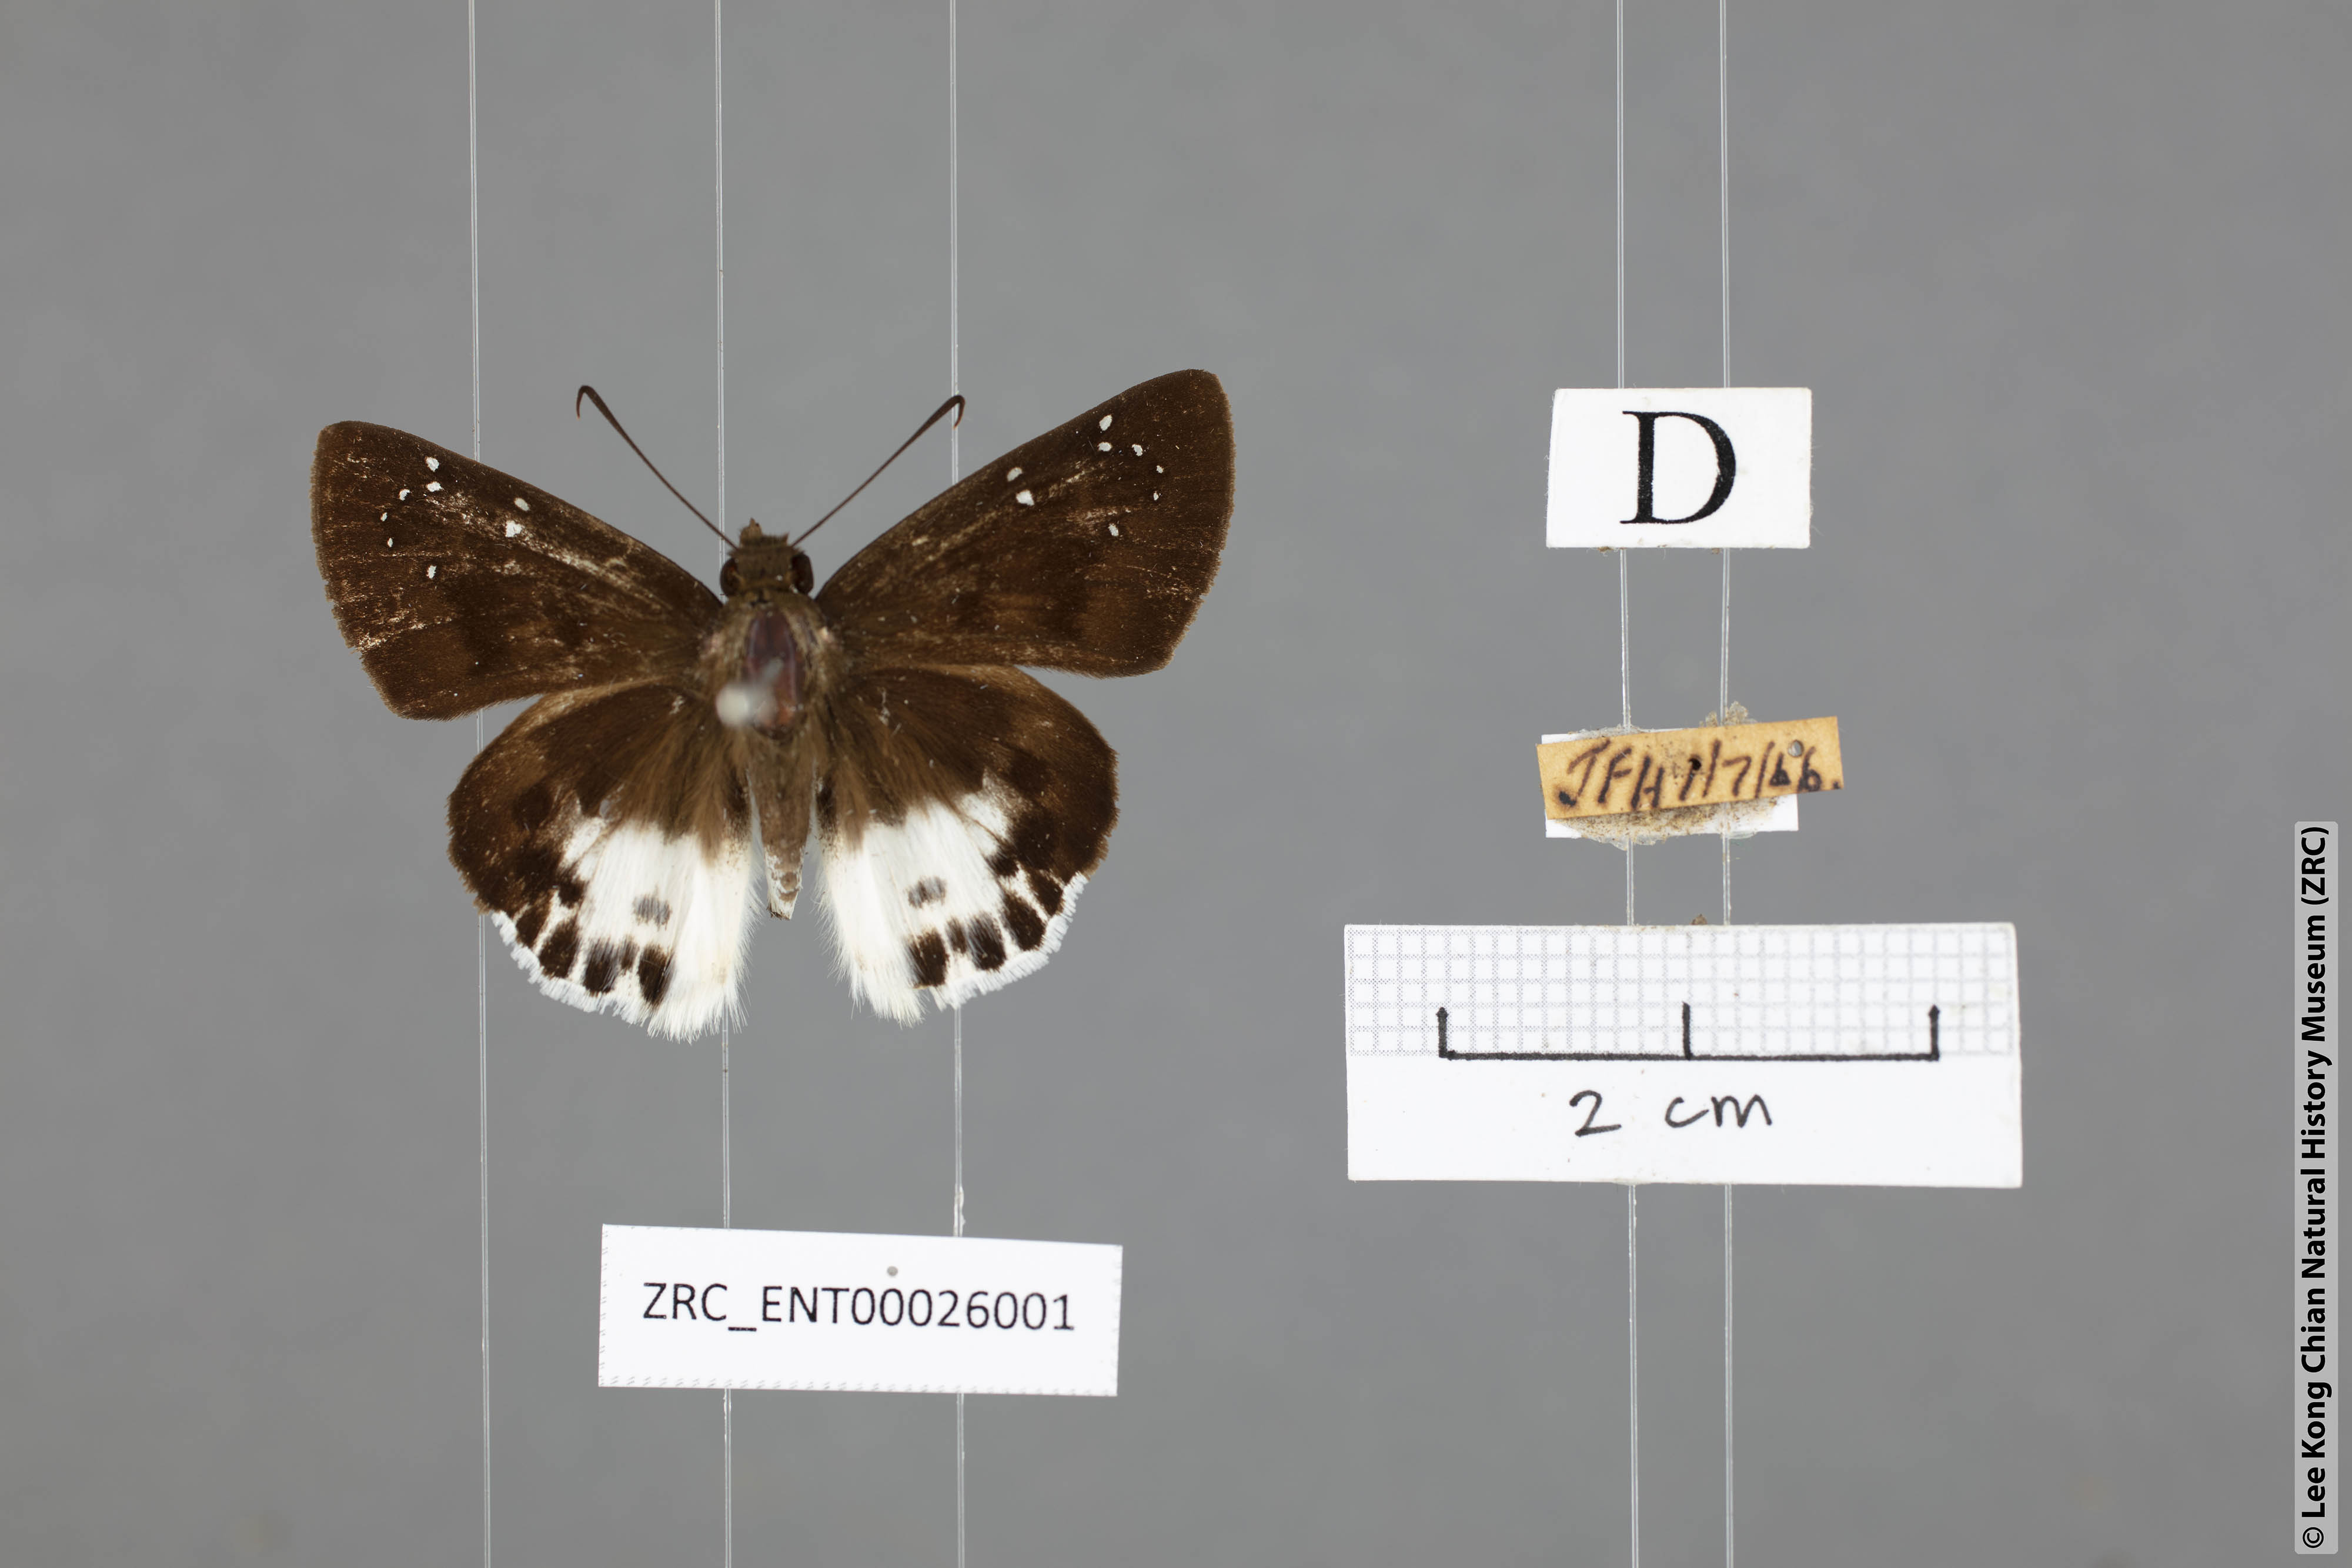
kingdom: Animalia
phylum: Arthropoda
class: Insecta
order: Lepidoptera
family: Hesperiidae
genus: Tagiades
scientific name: Tagiades menaka
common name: Dark-edged snow flat
